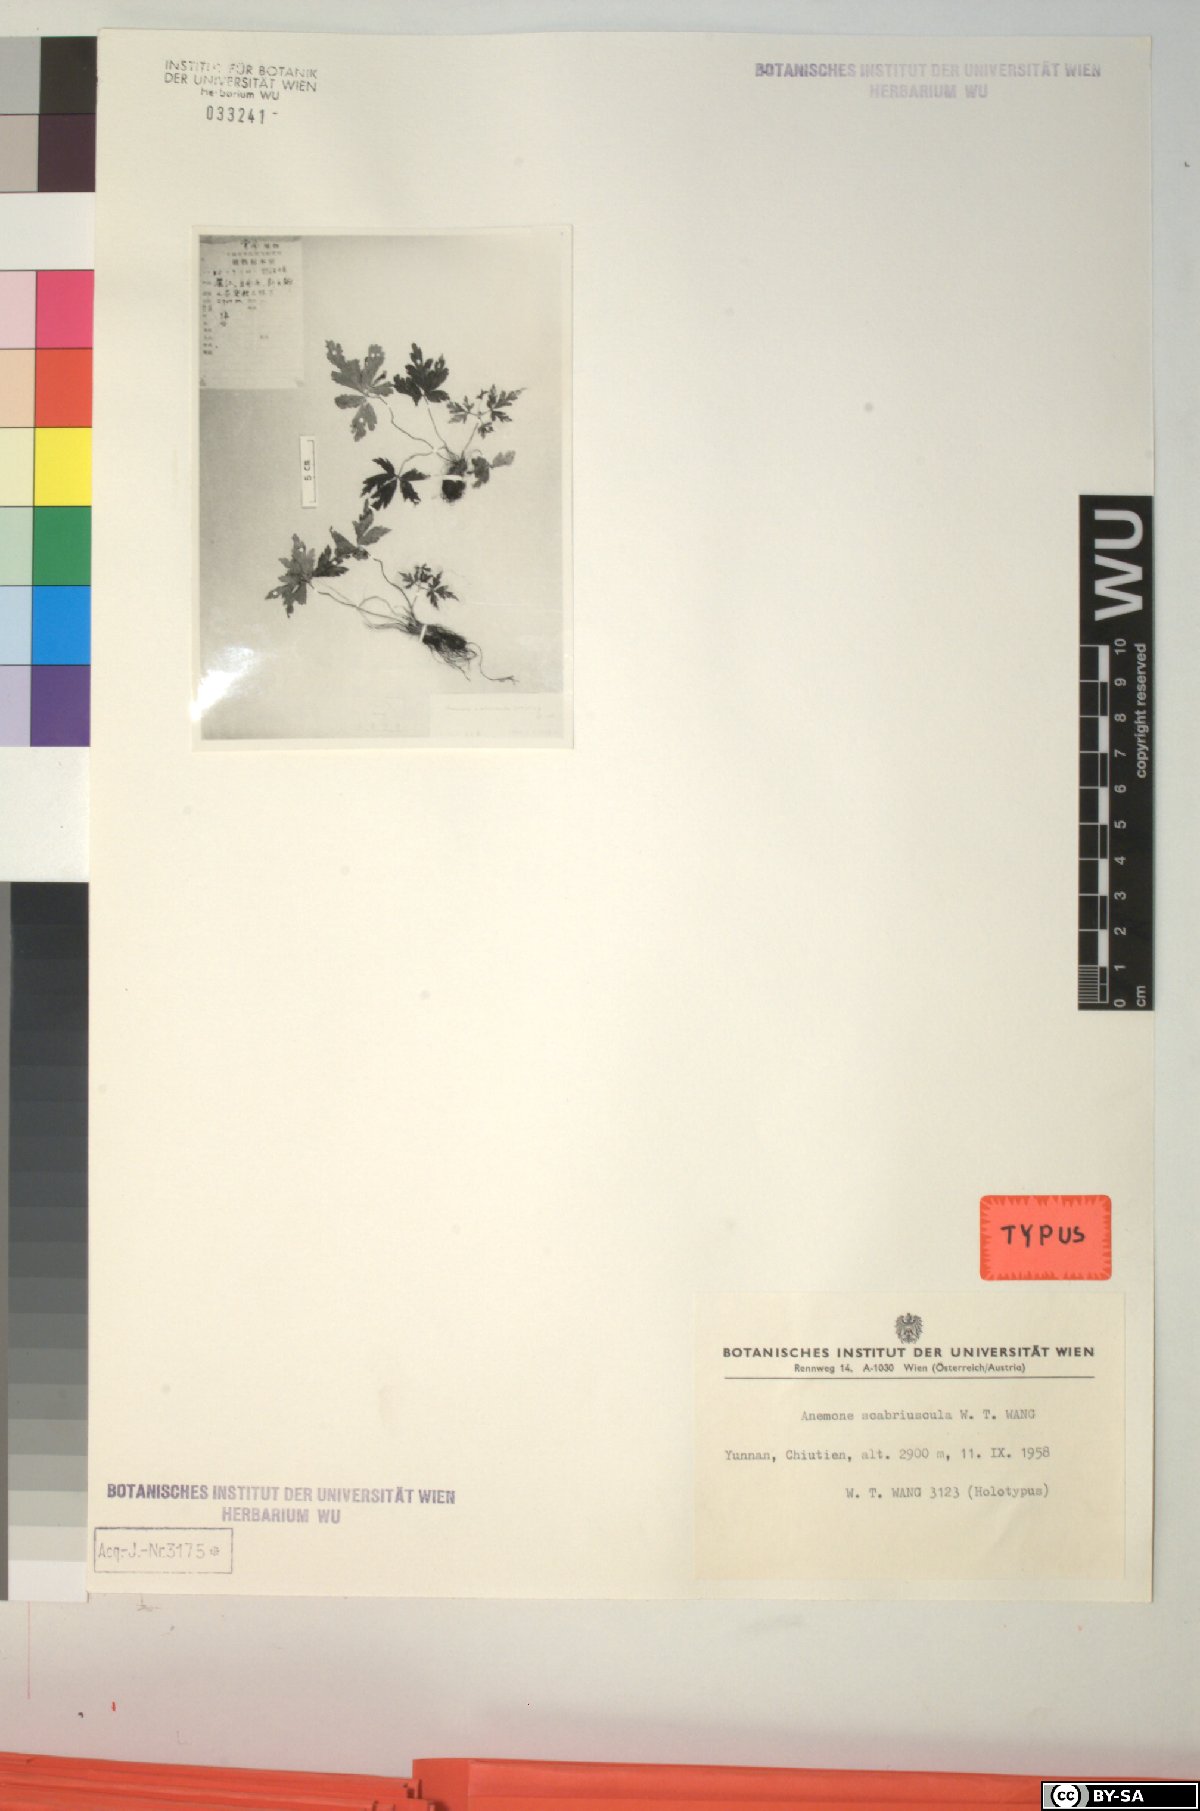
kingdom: Plantae
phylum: Tracheophyta
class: Magnoliopsida
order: Ranunculales
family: Ranunculaceae
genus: Anemone
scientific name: Anemone scabriuscula
